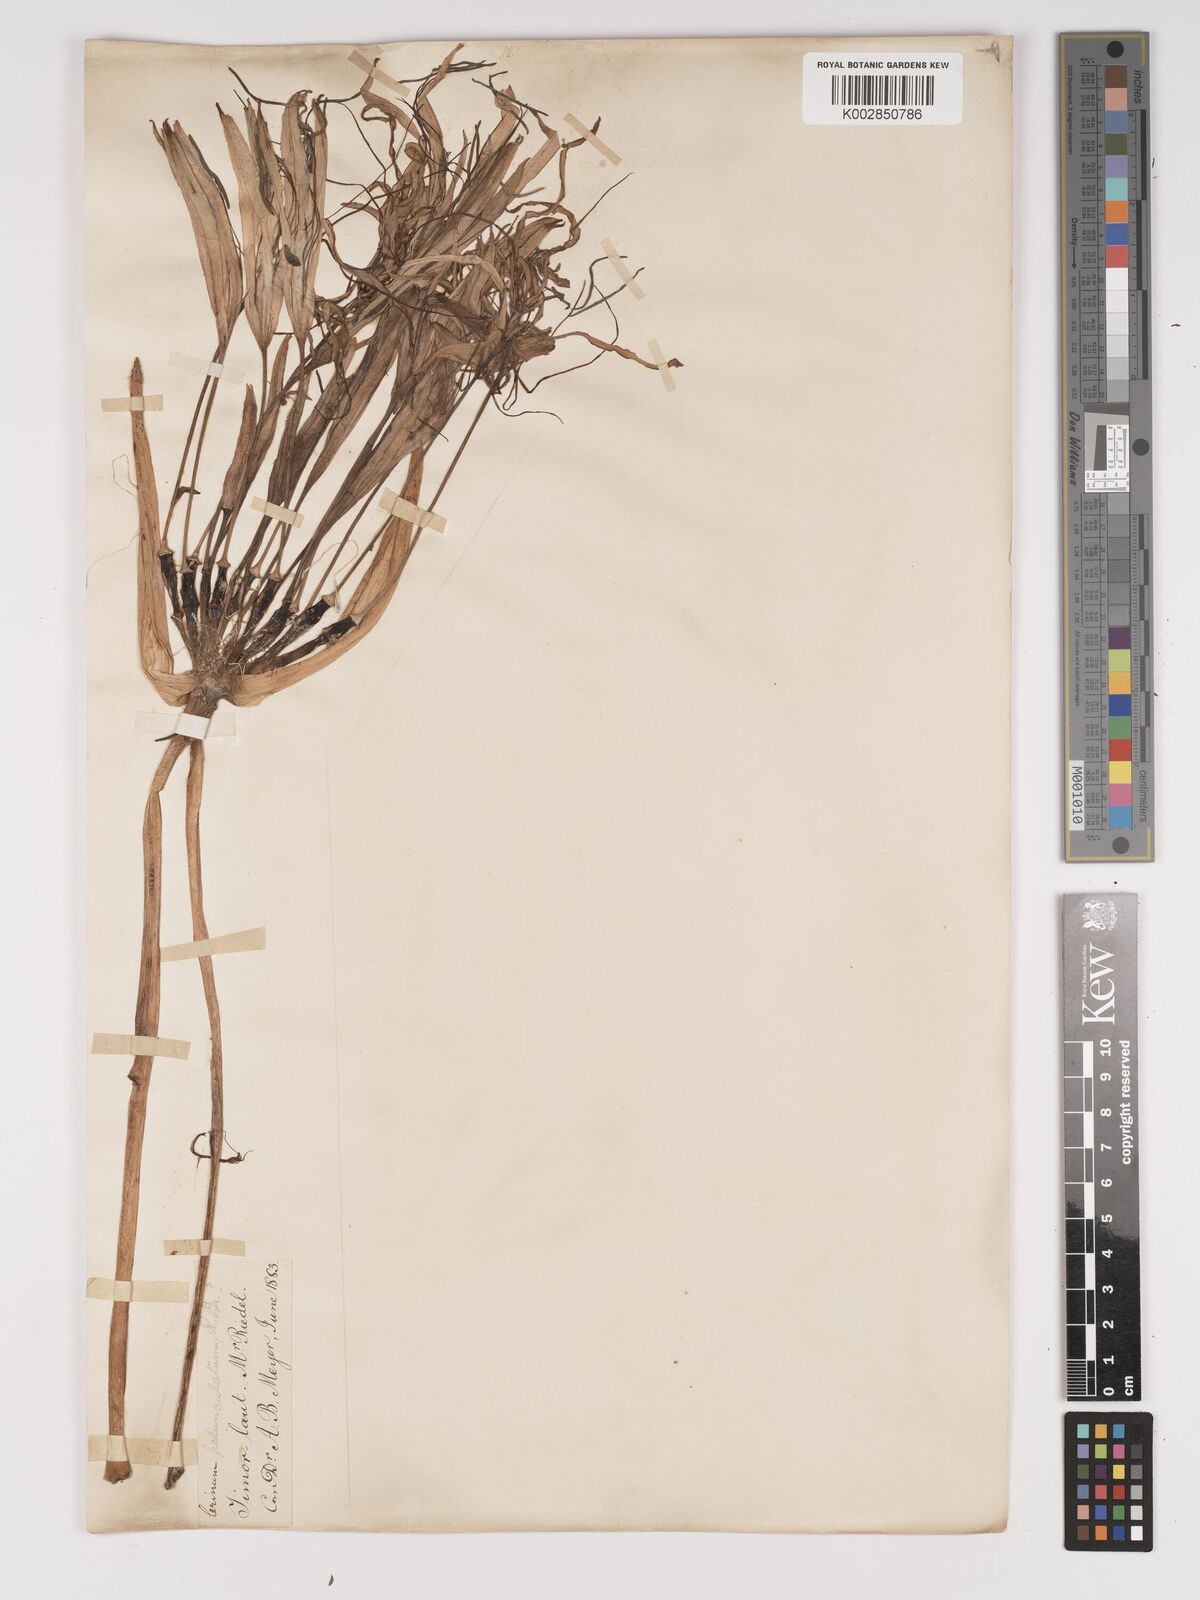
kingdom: Plantae
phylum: Tracheophyta
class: Liliopsida
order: Asparagales
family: Amaryllidaceae
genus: Crinum
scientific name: Crinum asiaticum
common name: Poisonbulb
